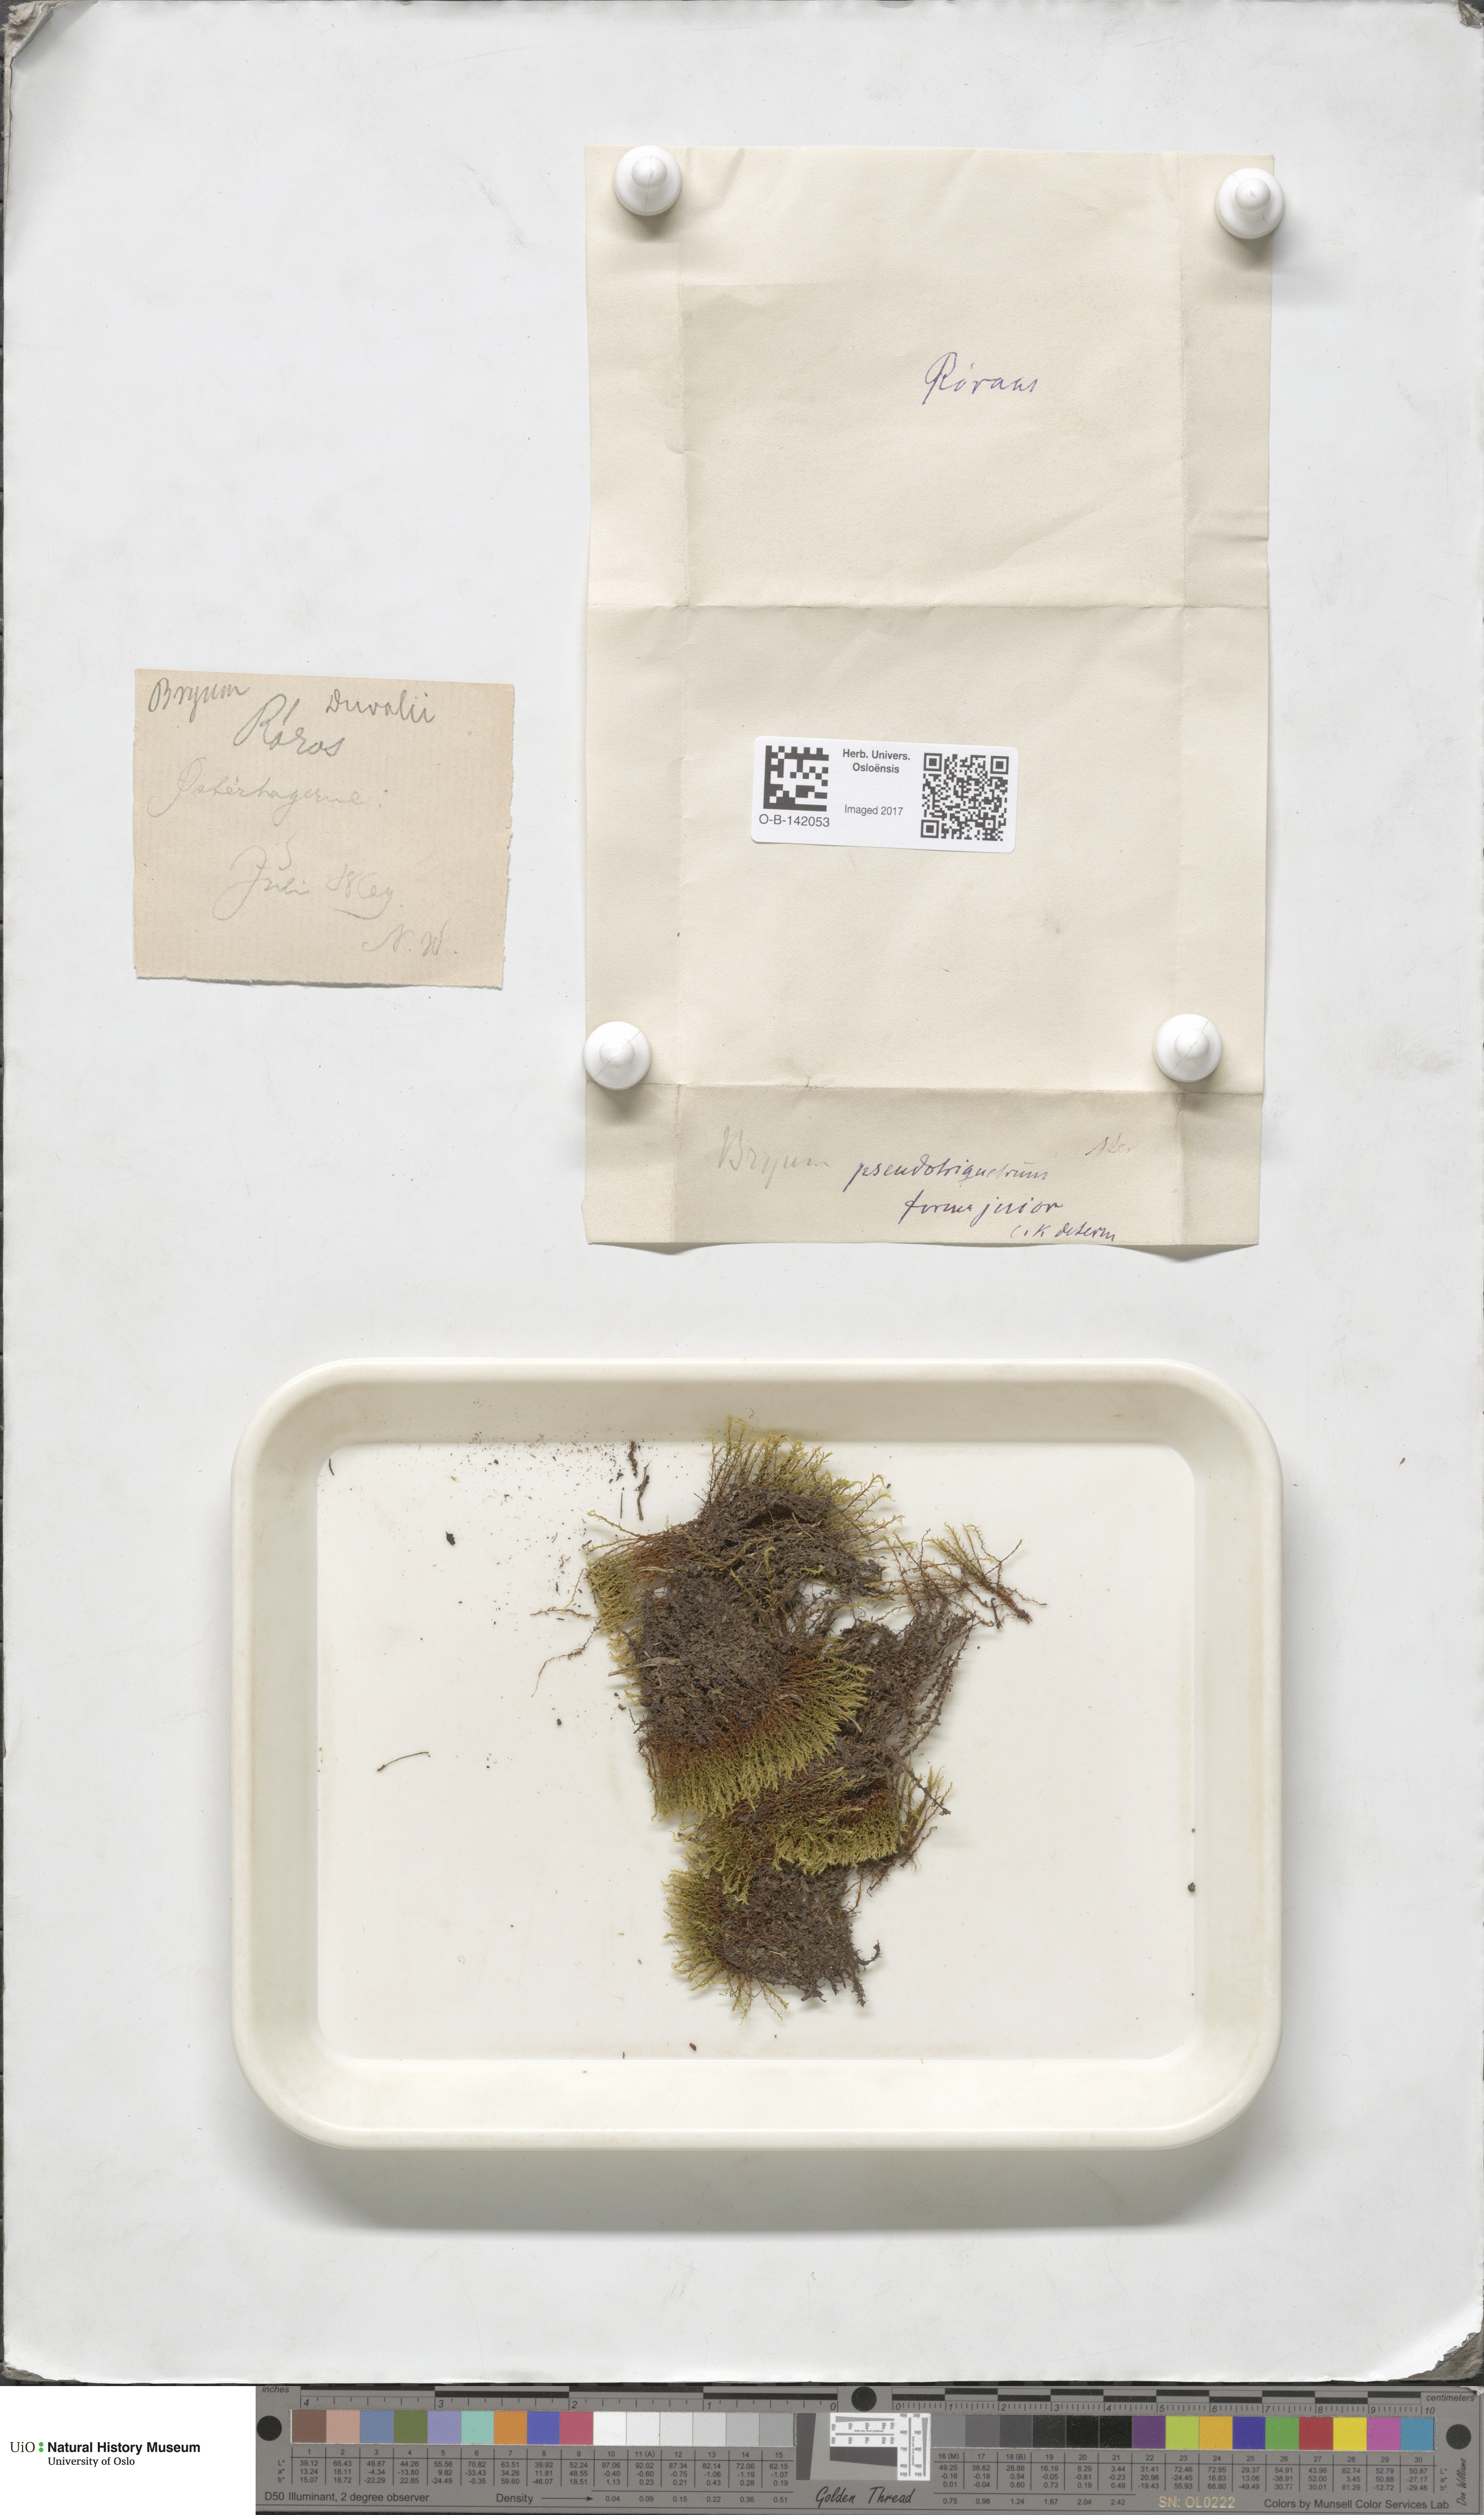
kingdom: Plantae
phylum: Bryophyta
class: Bryopsida
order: Bryales
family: Bryaceae
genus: Ptychostomum
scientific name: Ptychostomum pseudotriquetrum
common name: Long-leaved thread moss
